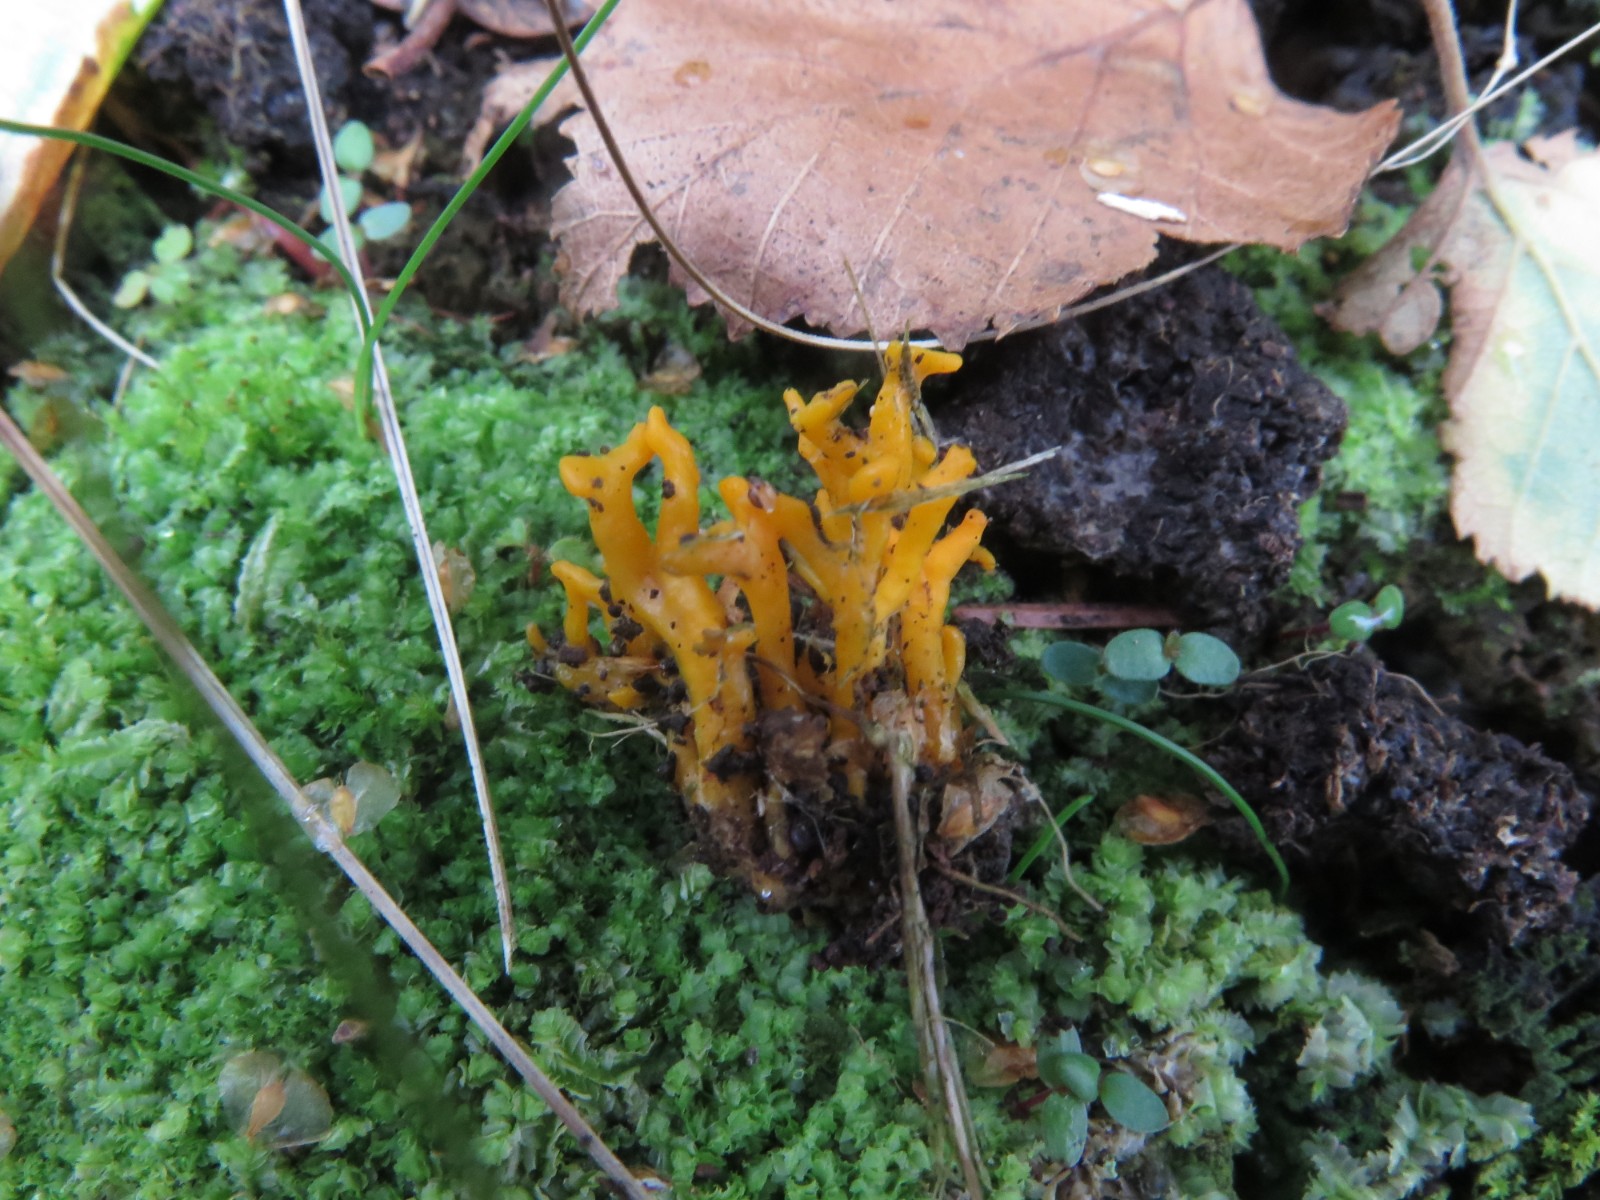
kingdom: Fungi
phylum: Basidiomycota
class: Agaricomycetes
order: Agaricales
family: Clavariaceae
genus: Clavulinopsis
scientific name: Clavulinopsis corniculata
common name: eng-køllesvamp
